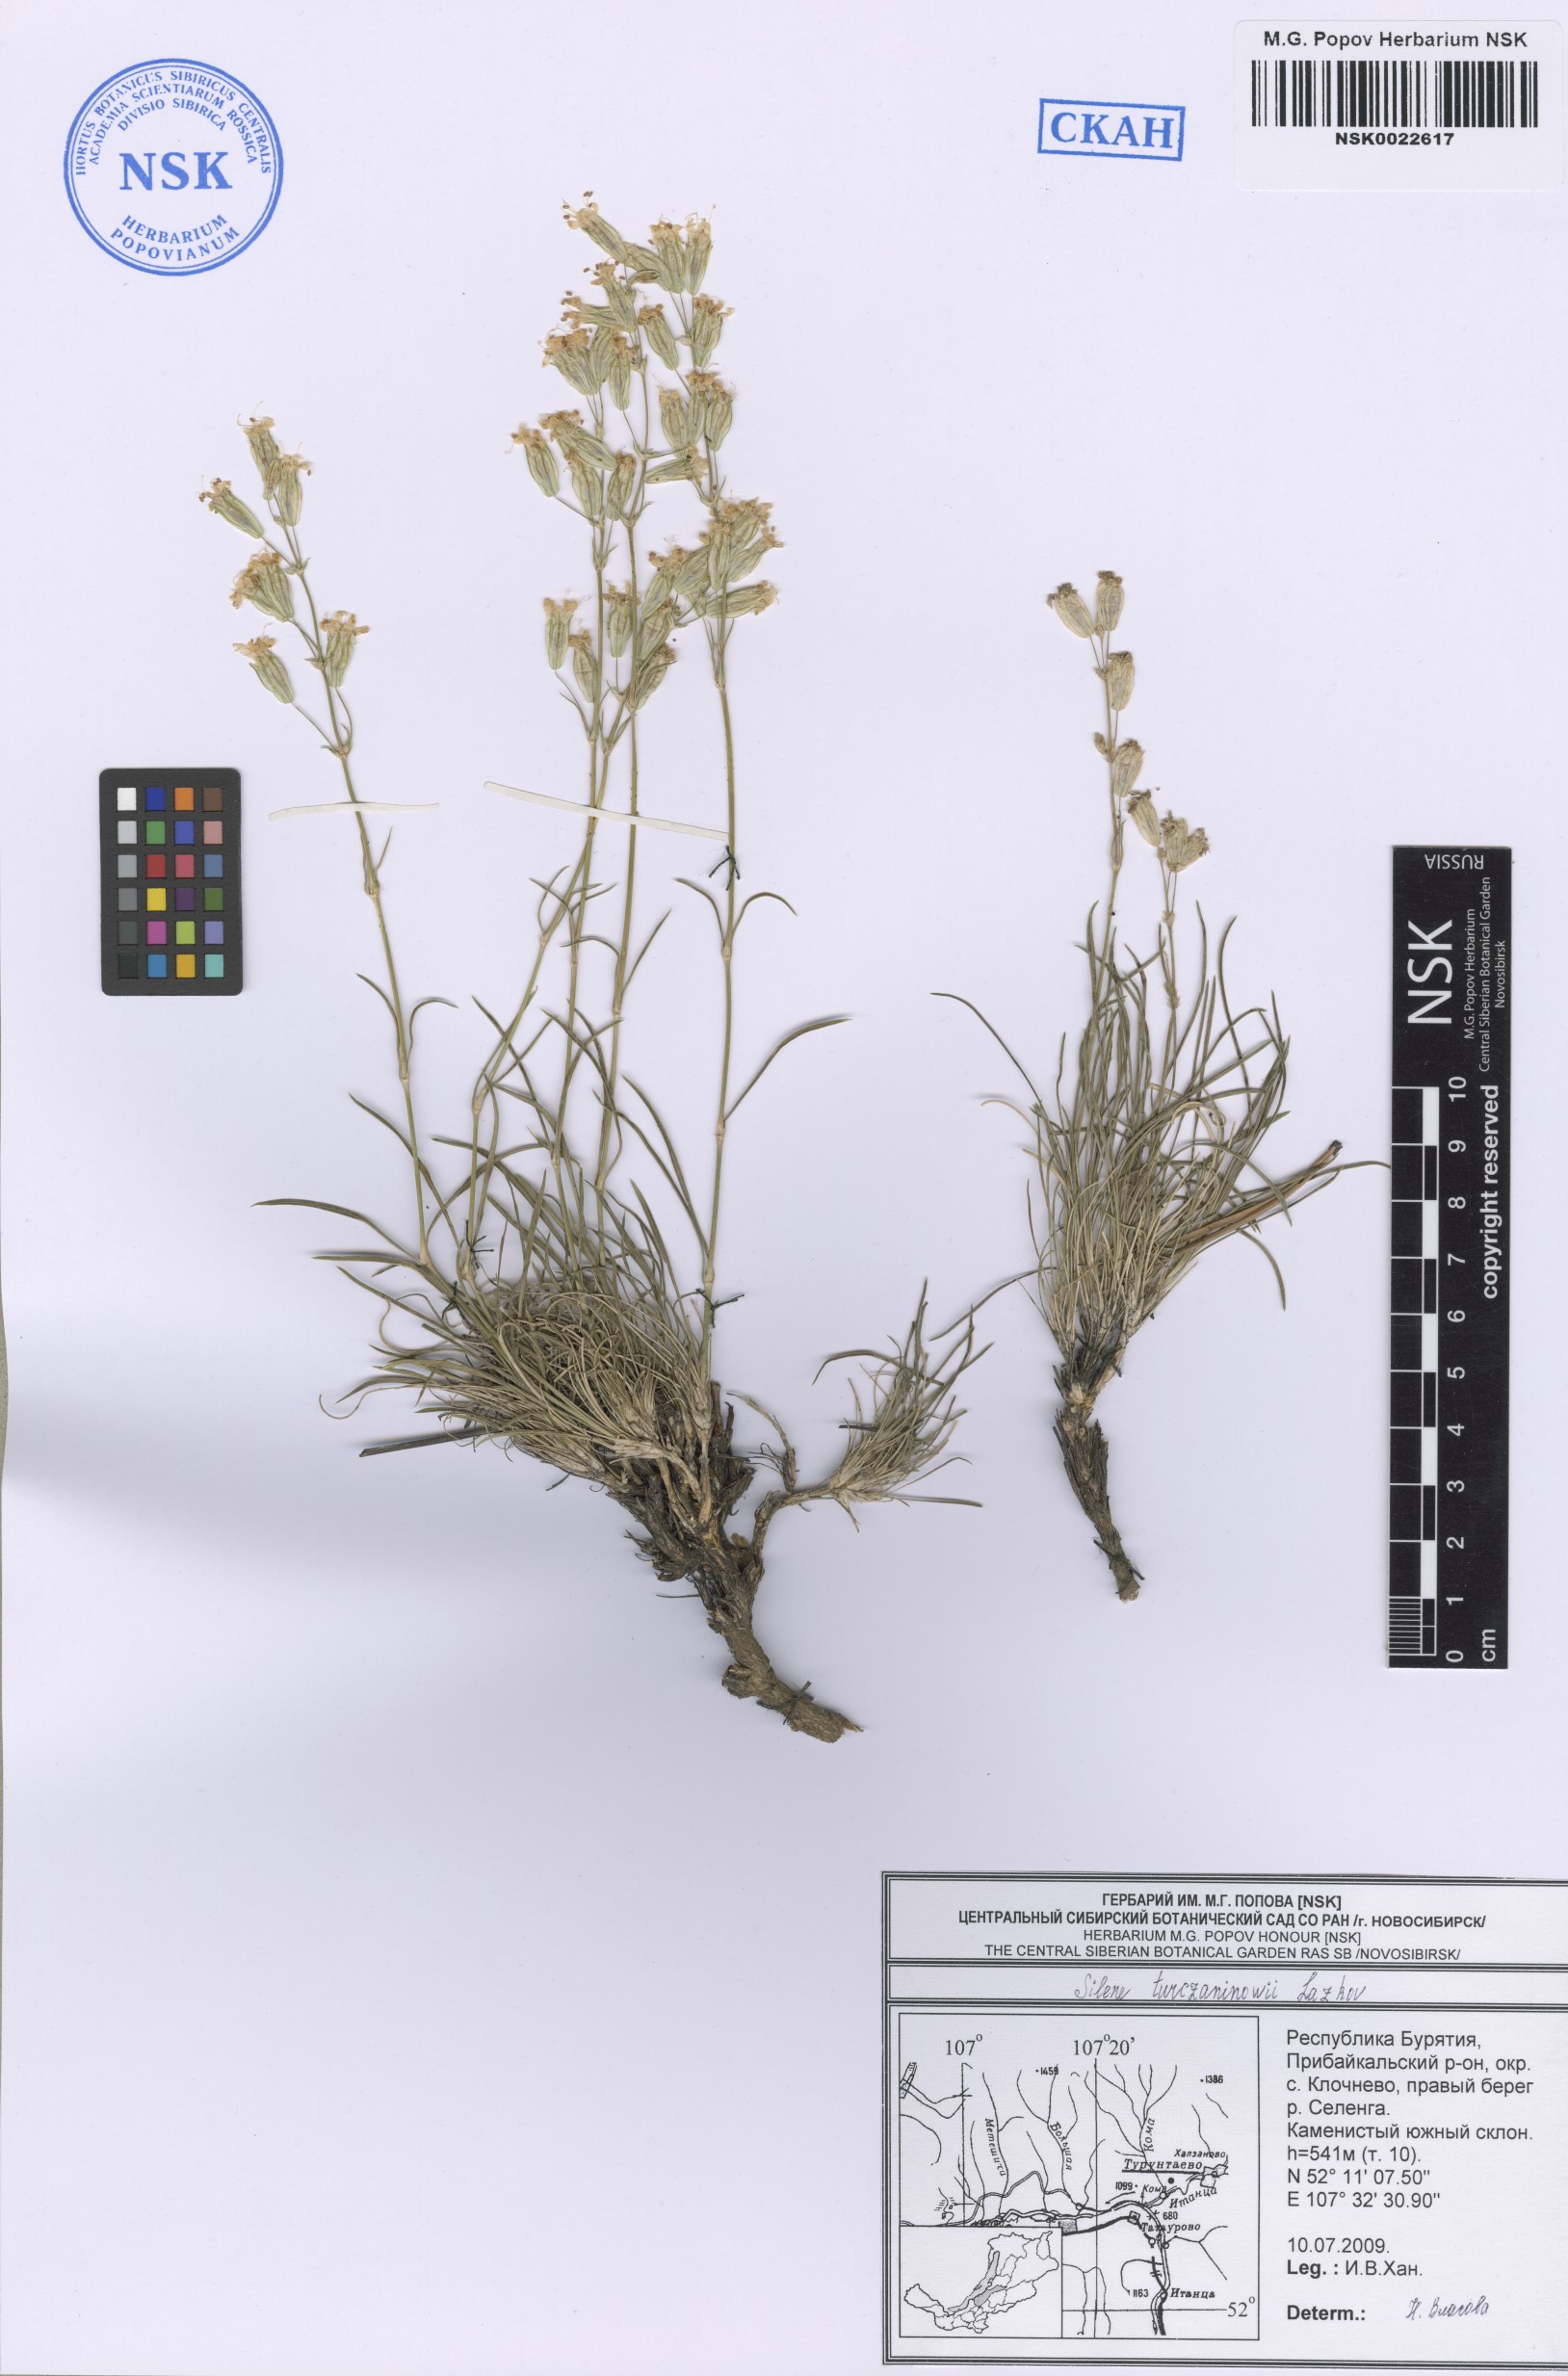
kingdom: Plantae
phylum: Tracheophyta
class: Magnoliopsida
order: Caryophyllales
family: Caryophyllaceae
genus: Silene
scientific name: Silene turczaninovii
